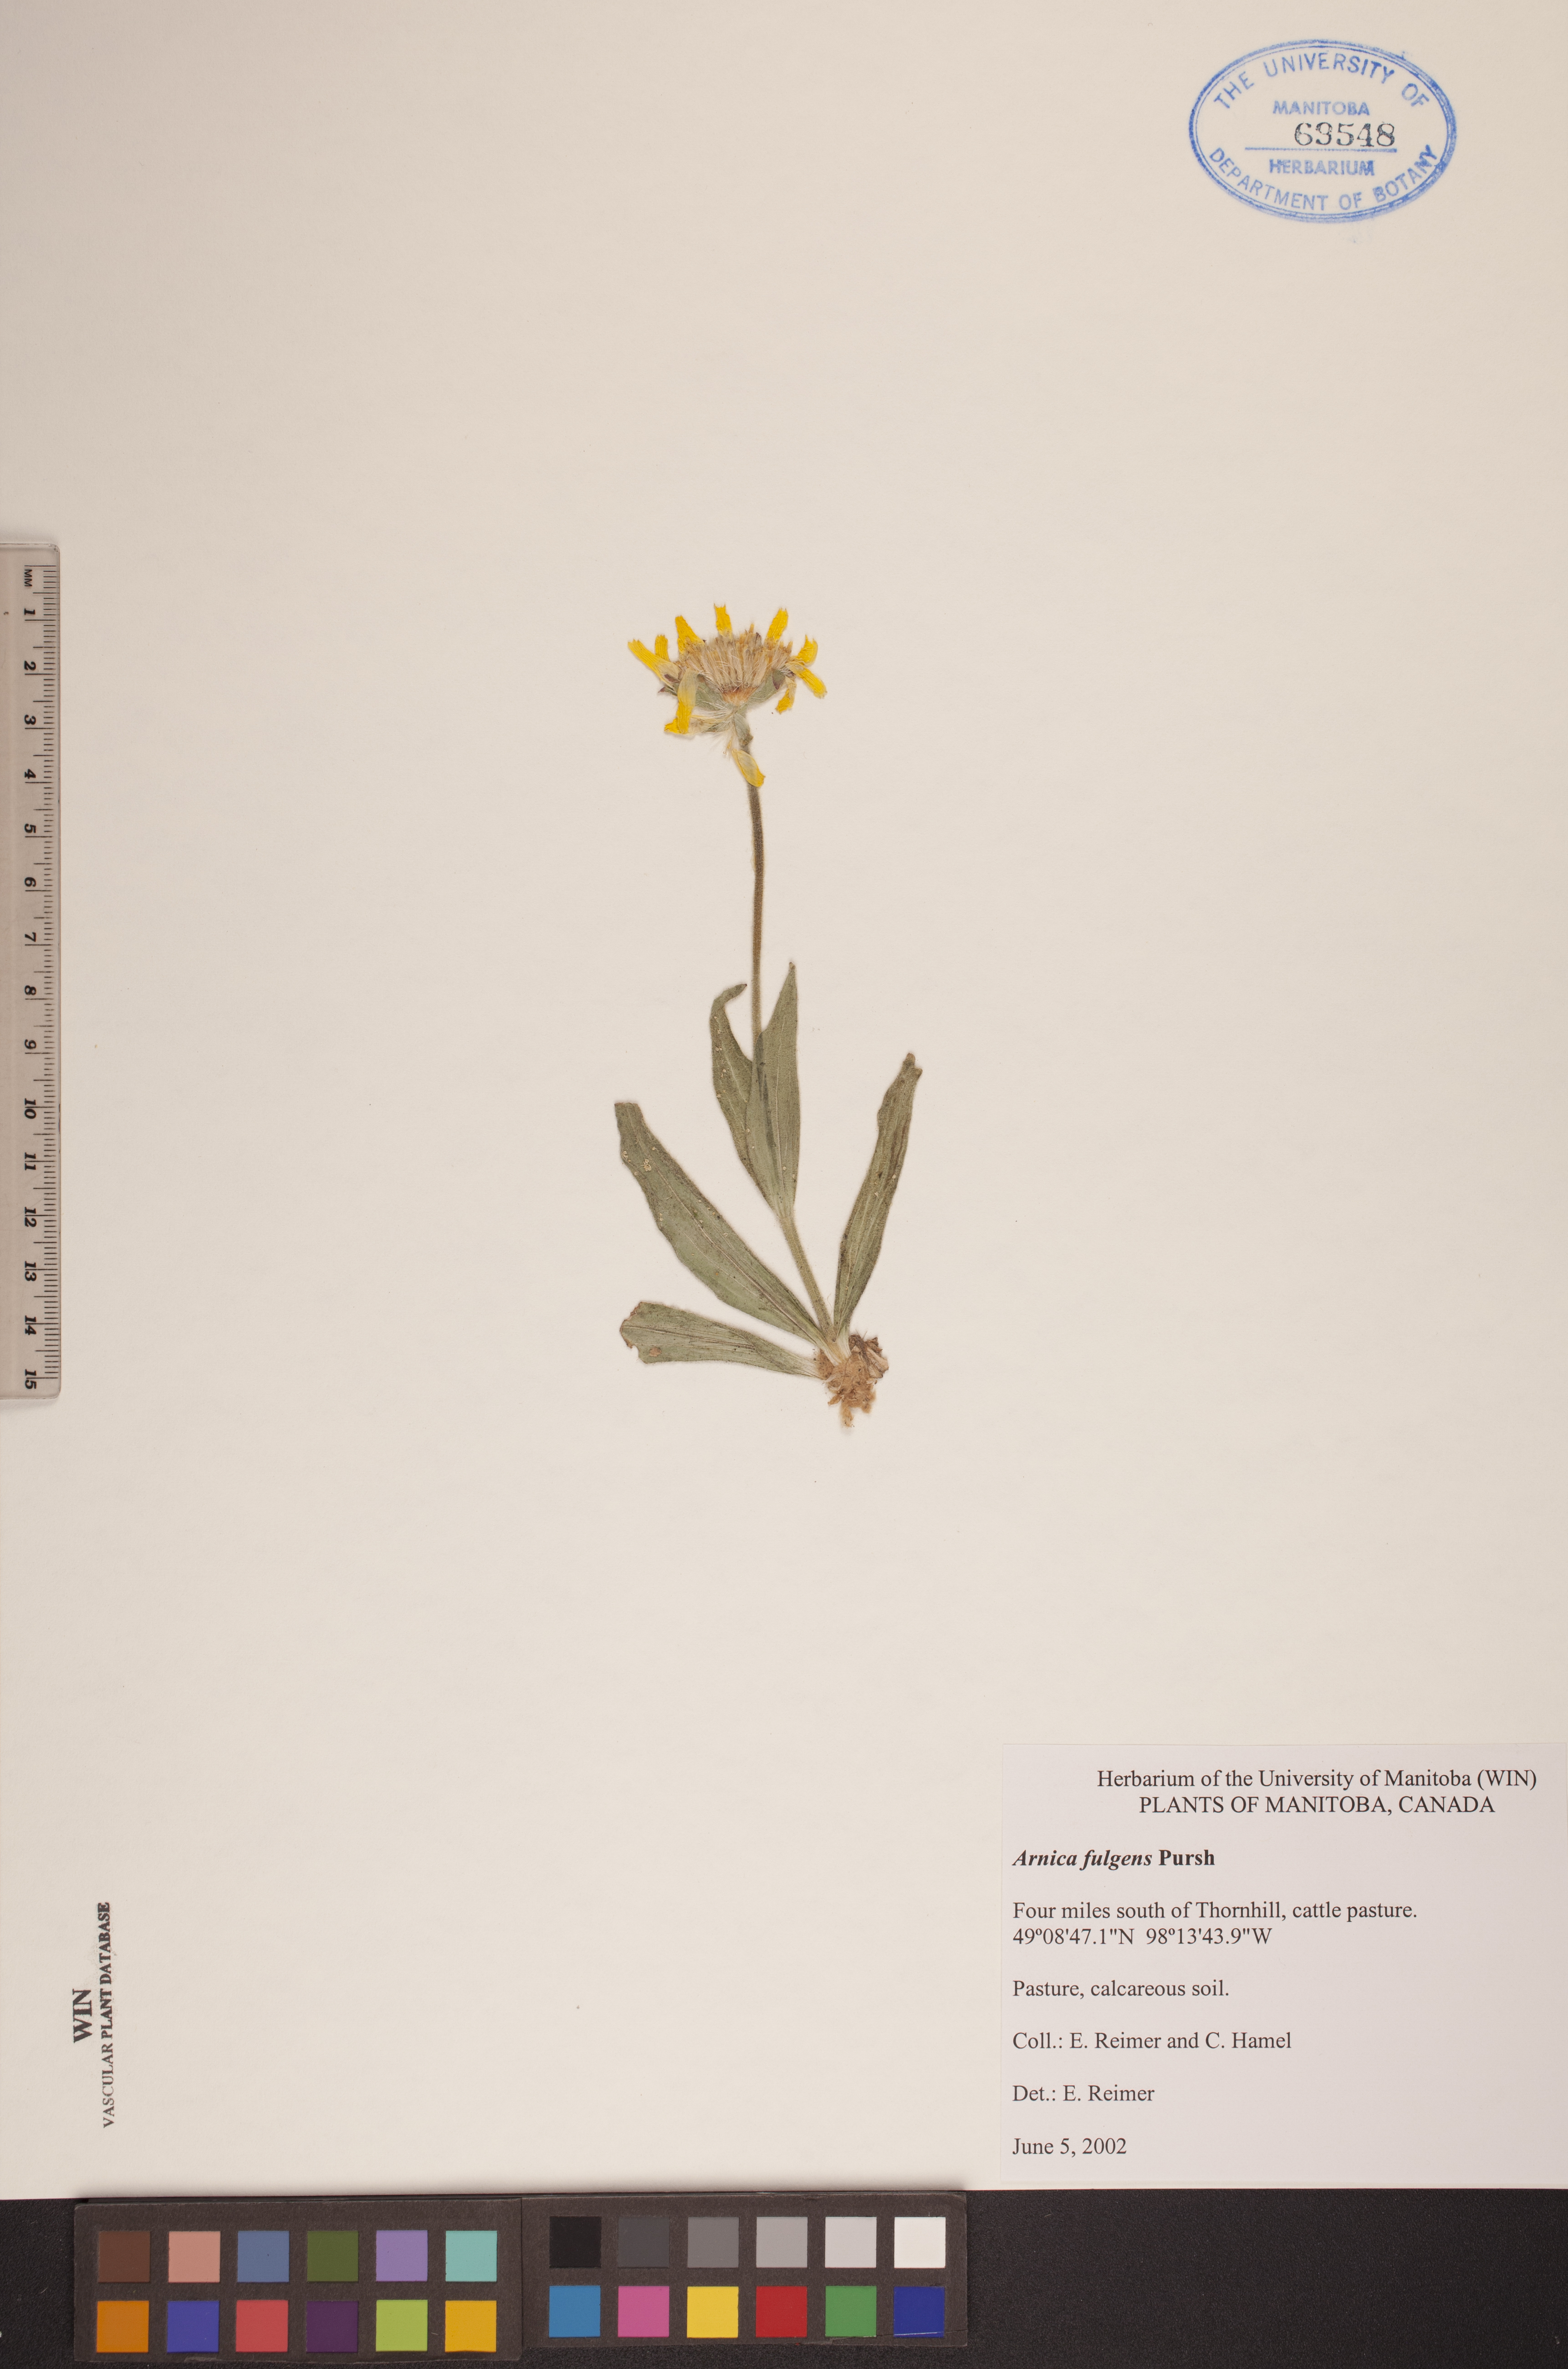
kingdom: Plantae
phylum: Tracheophyta
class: Magnoliopsida
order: Asterales
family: Asteraceae
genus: Arnica
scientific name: Arnica fulgens
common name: Foothill arnica
